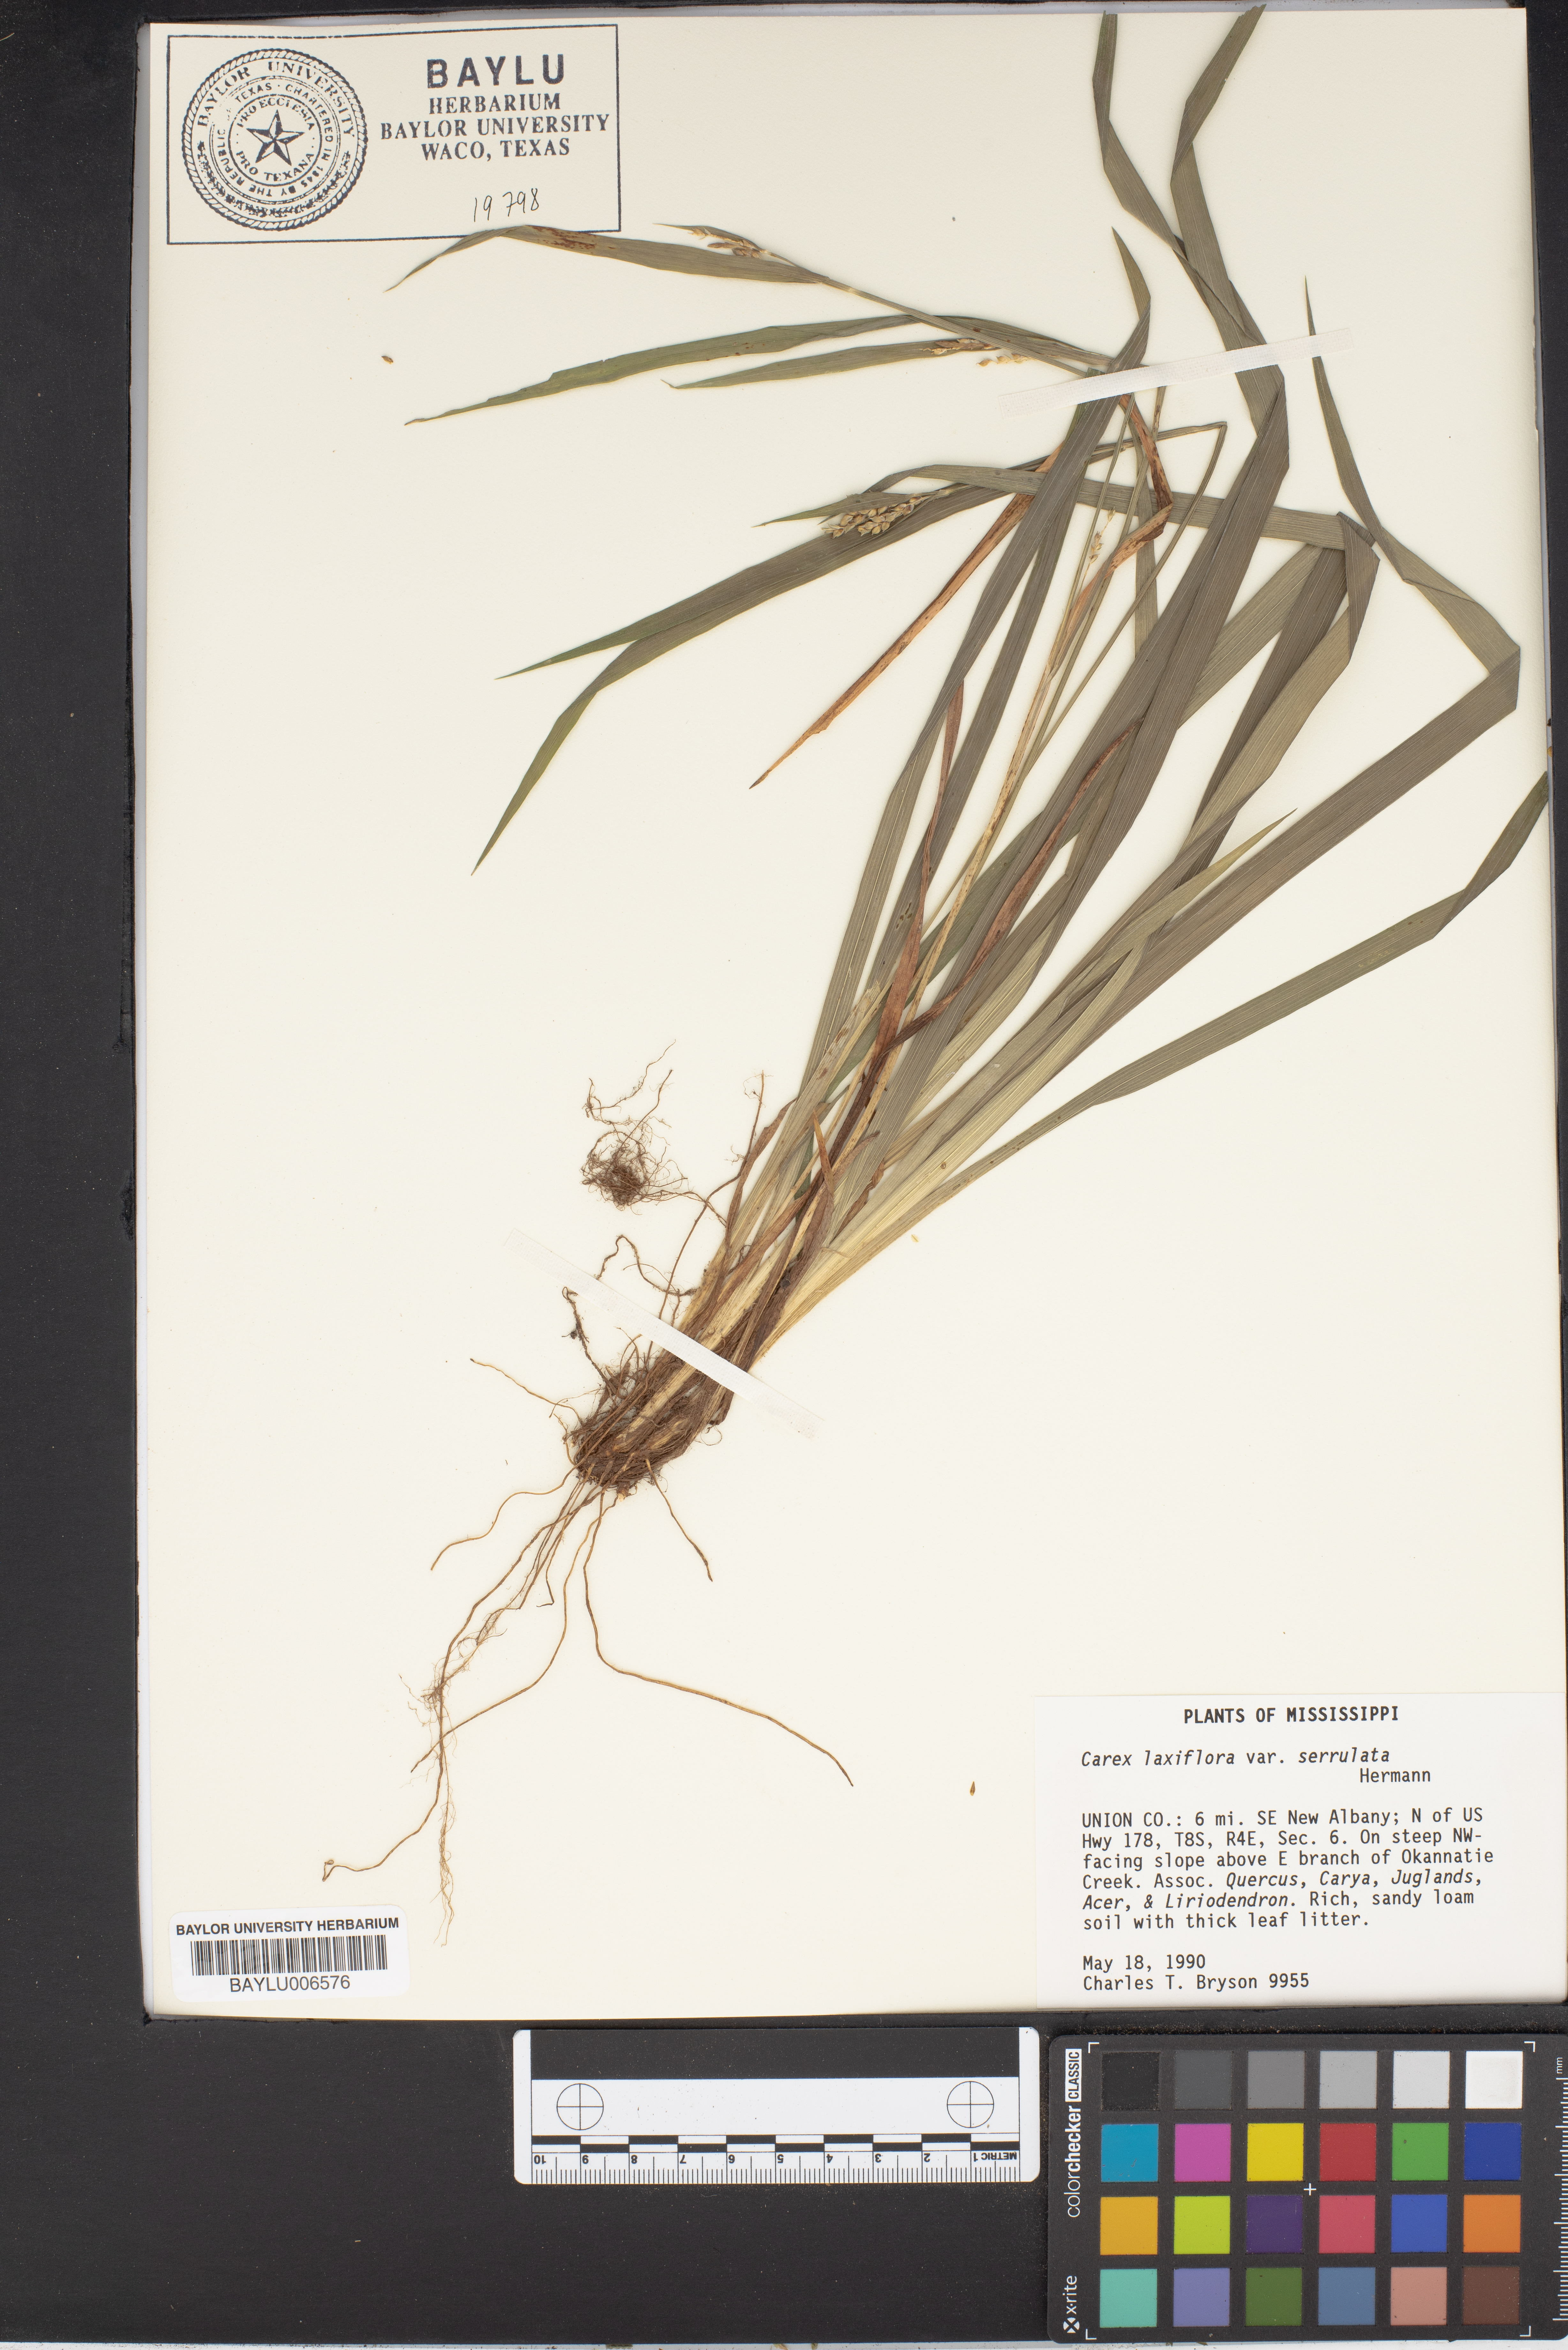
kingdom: Plantae
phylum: Tracheophyta
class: Liliopsida
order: Poales
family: Cyperaceae
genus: Carex
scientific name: Carex laxiflora
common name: Beech wood sedge
